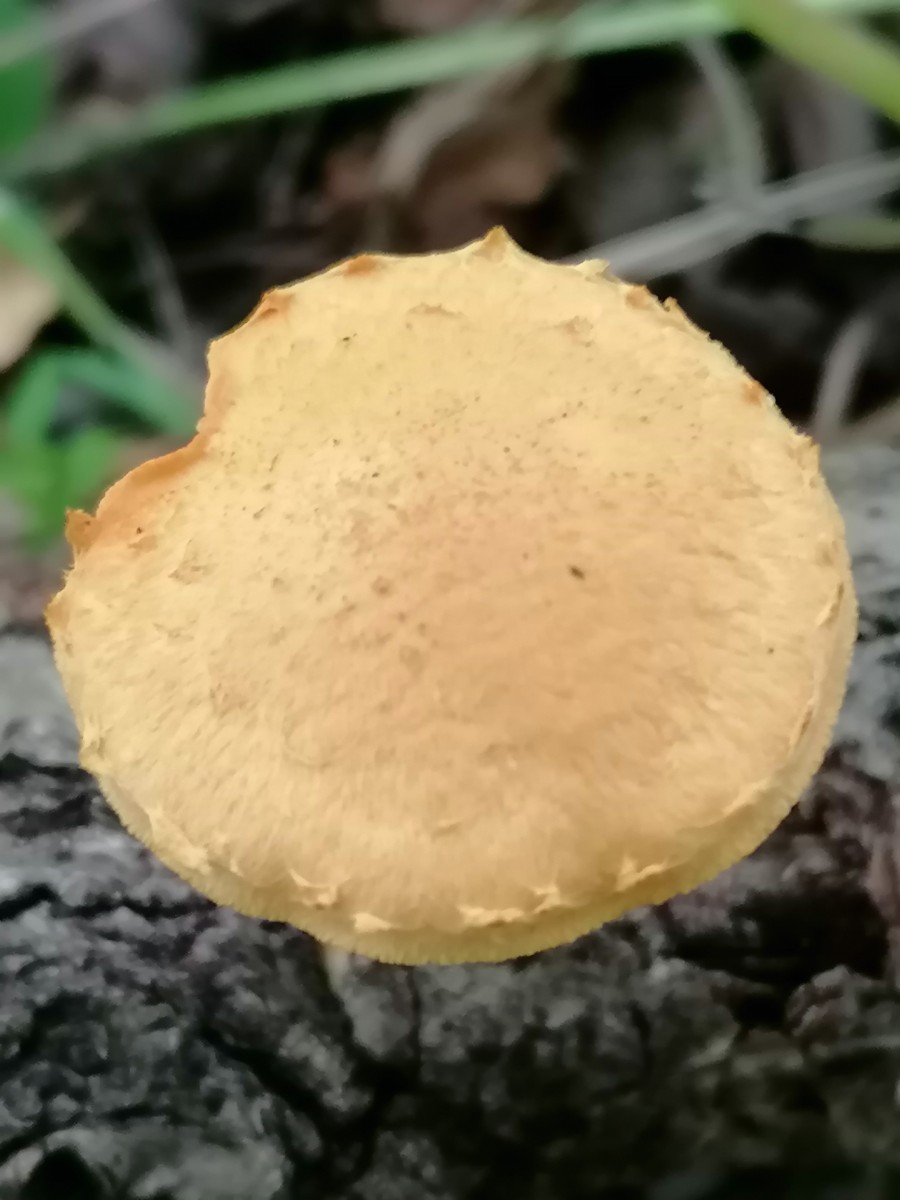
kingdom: Fungi
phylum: Basidiomycota
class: Agaricomycetes
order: Agaricales
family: Strophariaceae
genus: Pholiota
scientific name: Pholiota tuberculosa
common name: finskællet skælhat
